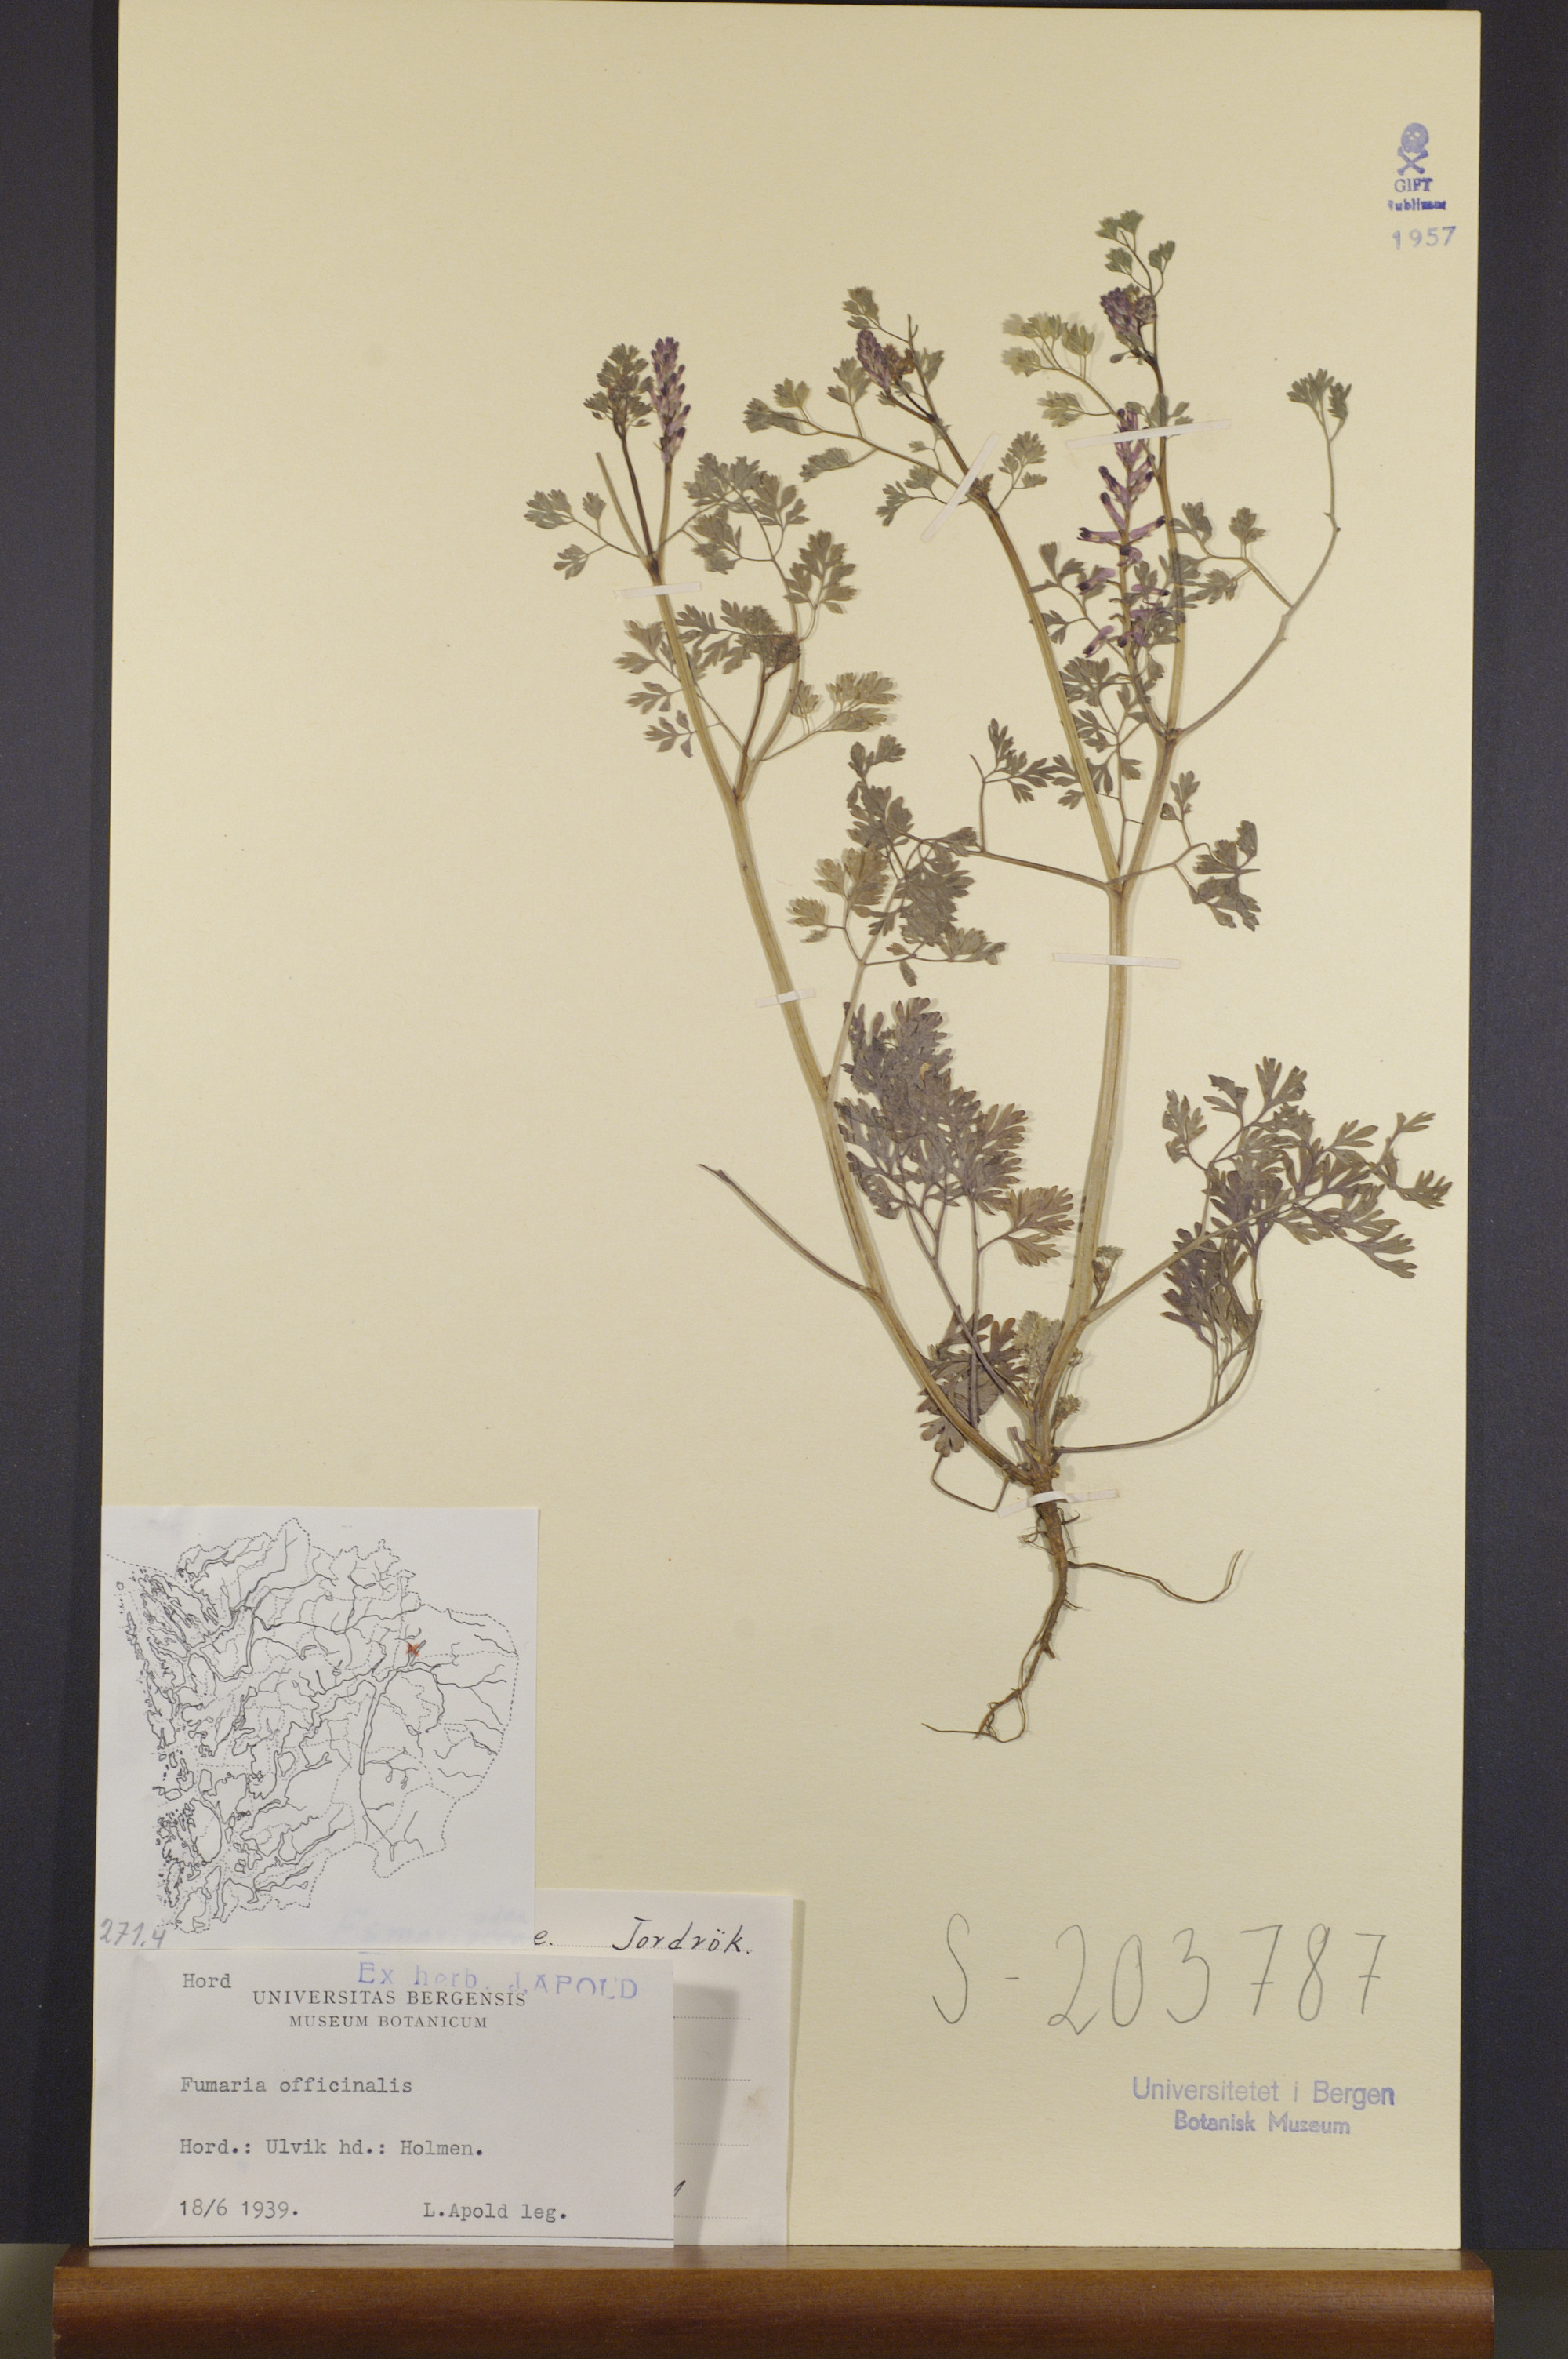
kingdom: Plantae
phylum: Tracheophyta
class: Magnoliopsida
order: Ranunculales
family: Papaveraceae
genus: Fumaria
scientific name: Fumaria officinalis
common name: Common fumitory
